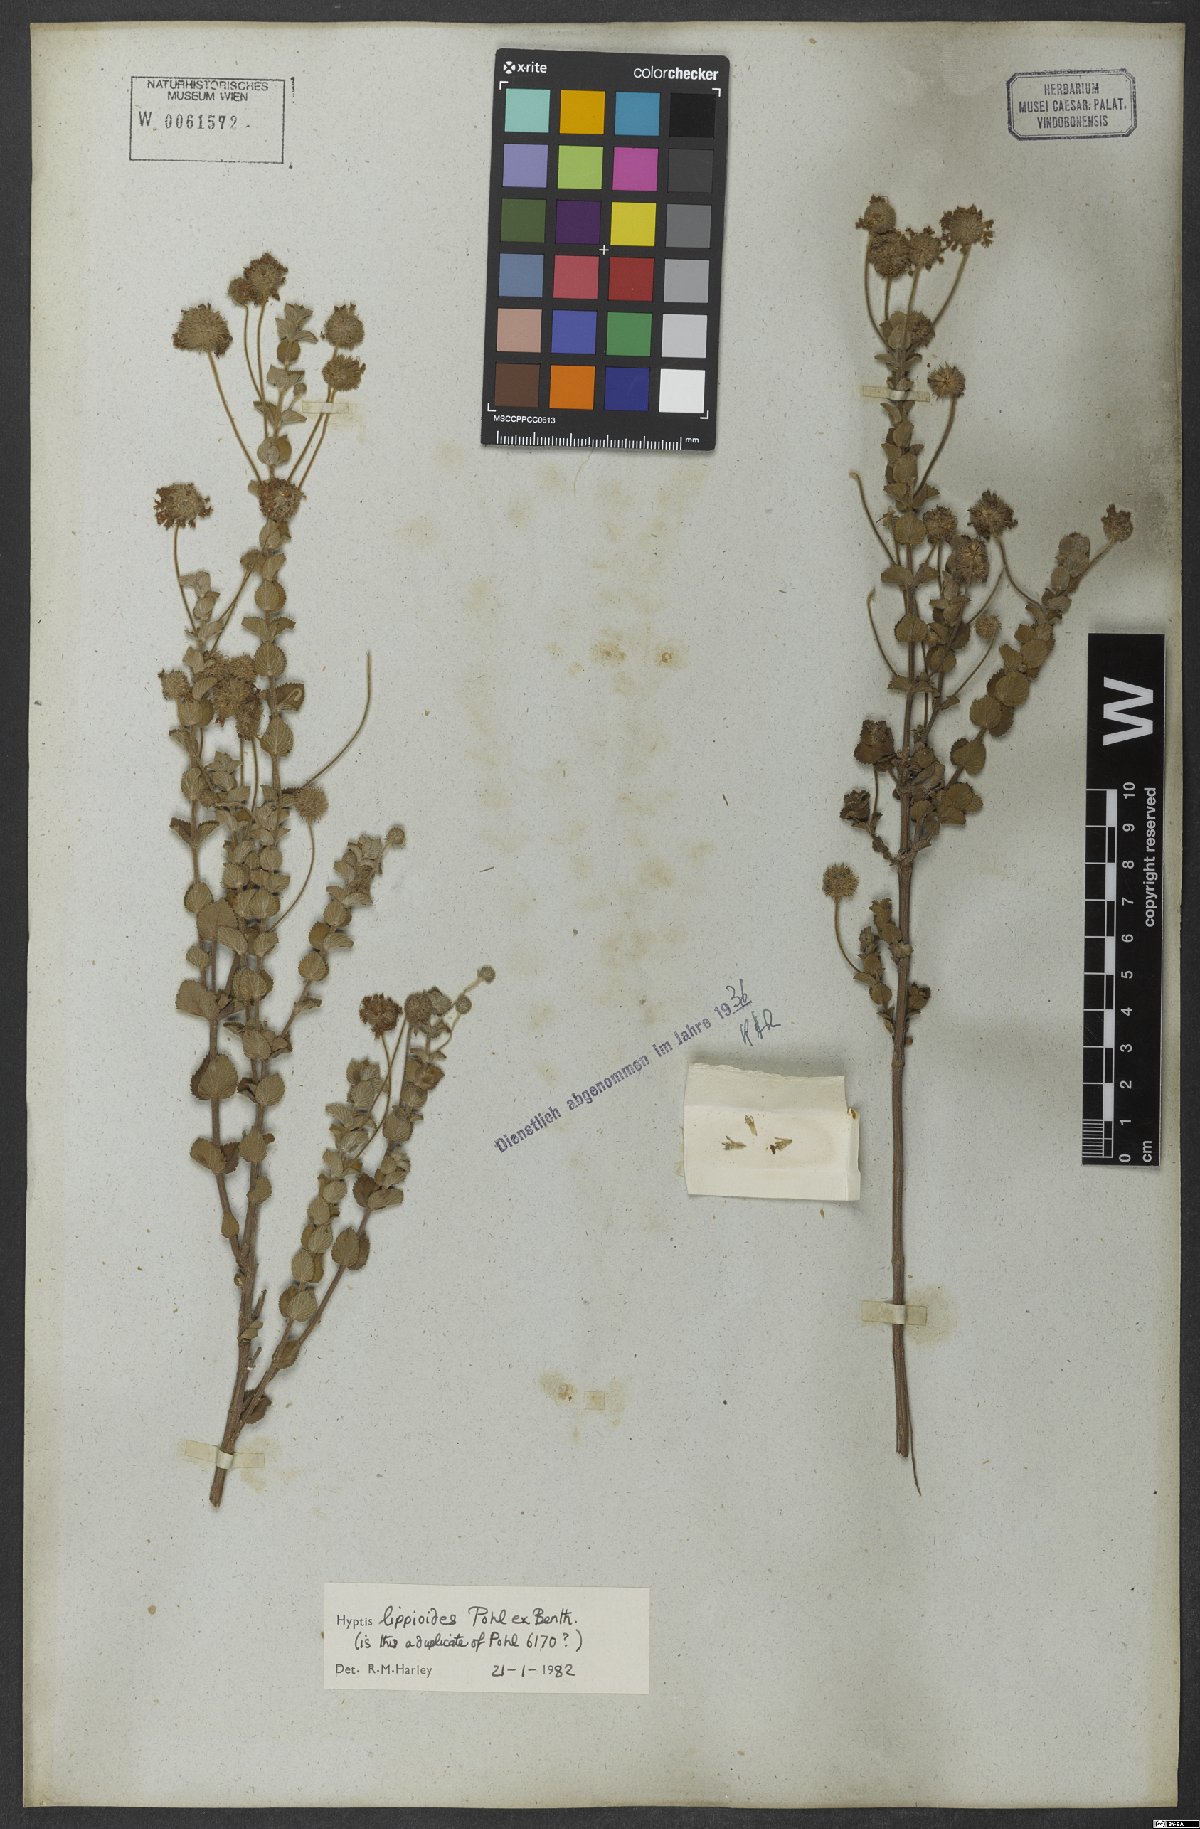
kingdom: Plantae
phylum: Tracheophyta
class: Magnoliopsida
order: Lamiales
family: Lamiaceae
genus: Cyanocephalus
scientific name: Cyanocephalus lippioides
